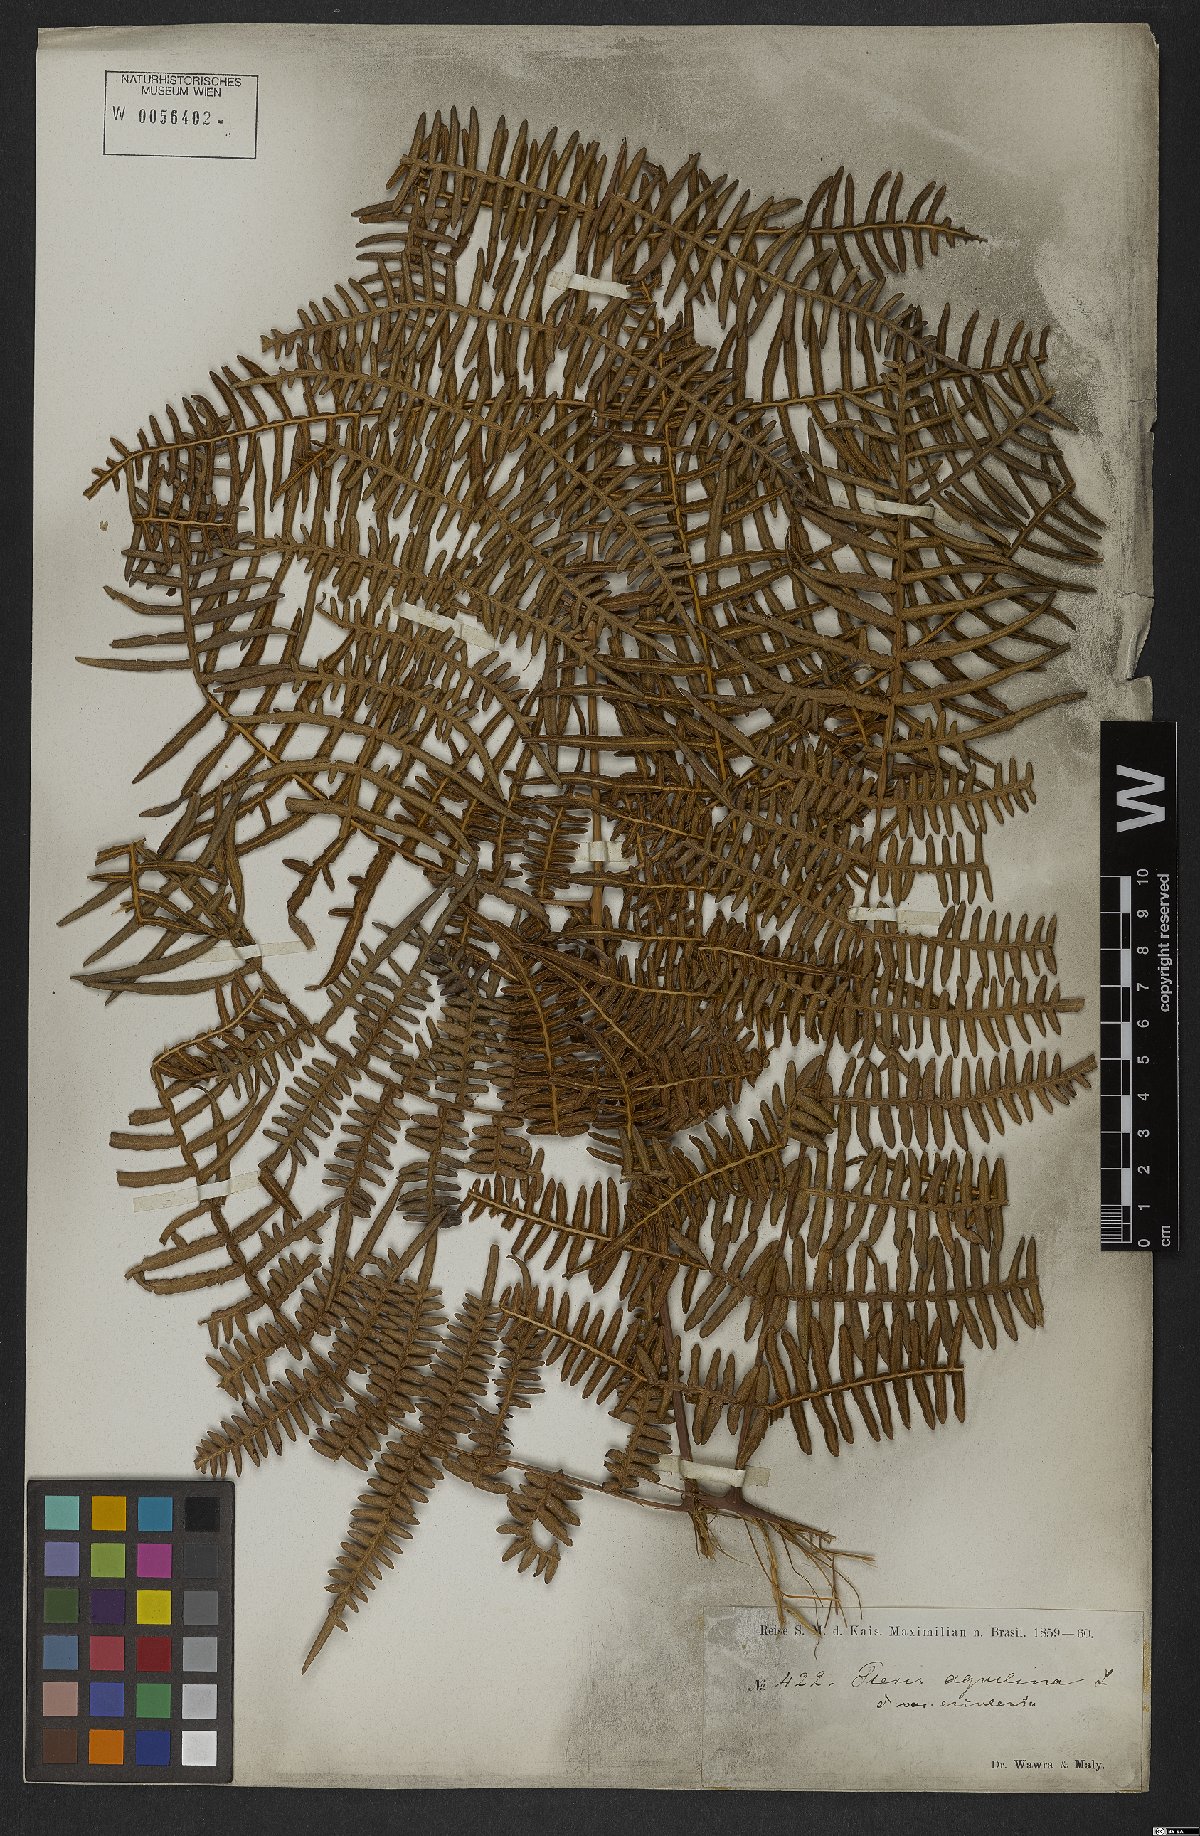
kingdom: Plantae
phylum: Tracheophyta
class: Polypodiopsida
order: Polypodiales
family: Dennstaedtiaceae
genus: Pteridium
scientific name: Pteridium caudatum
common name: Southern bracken fern
